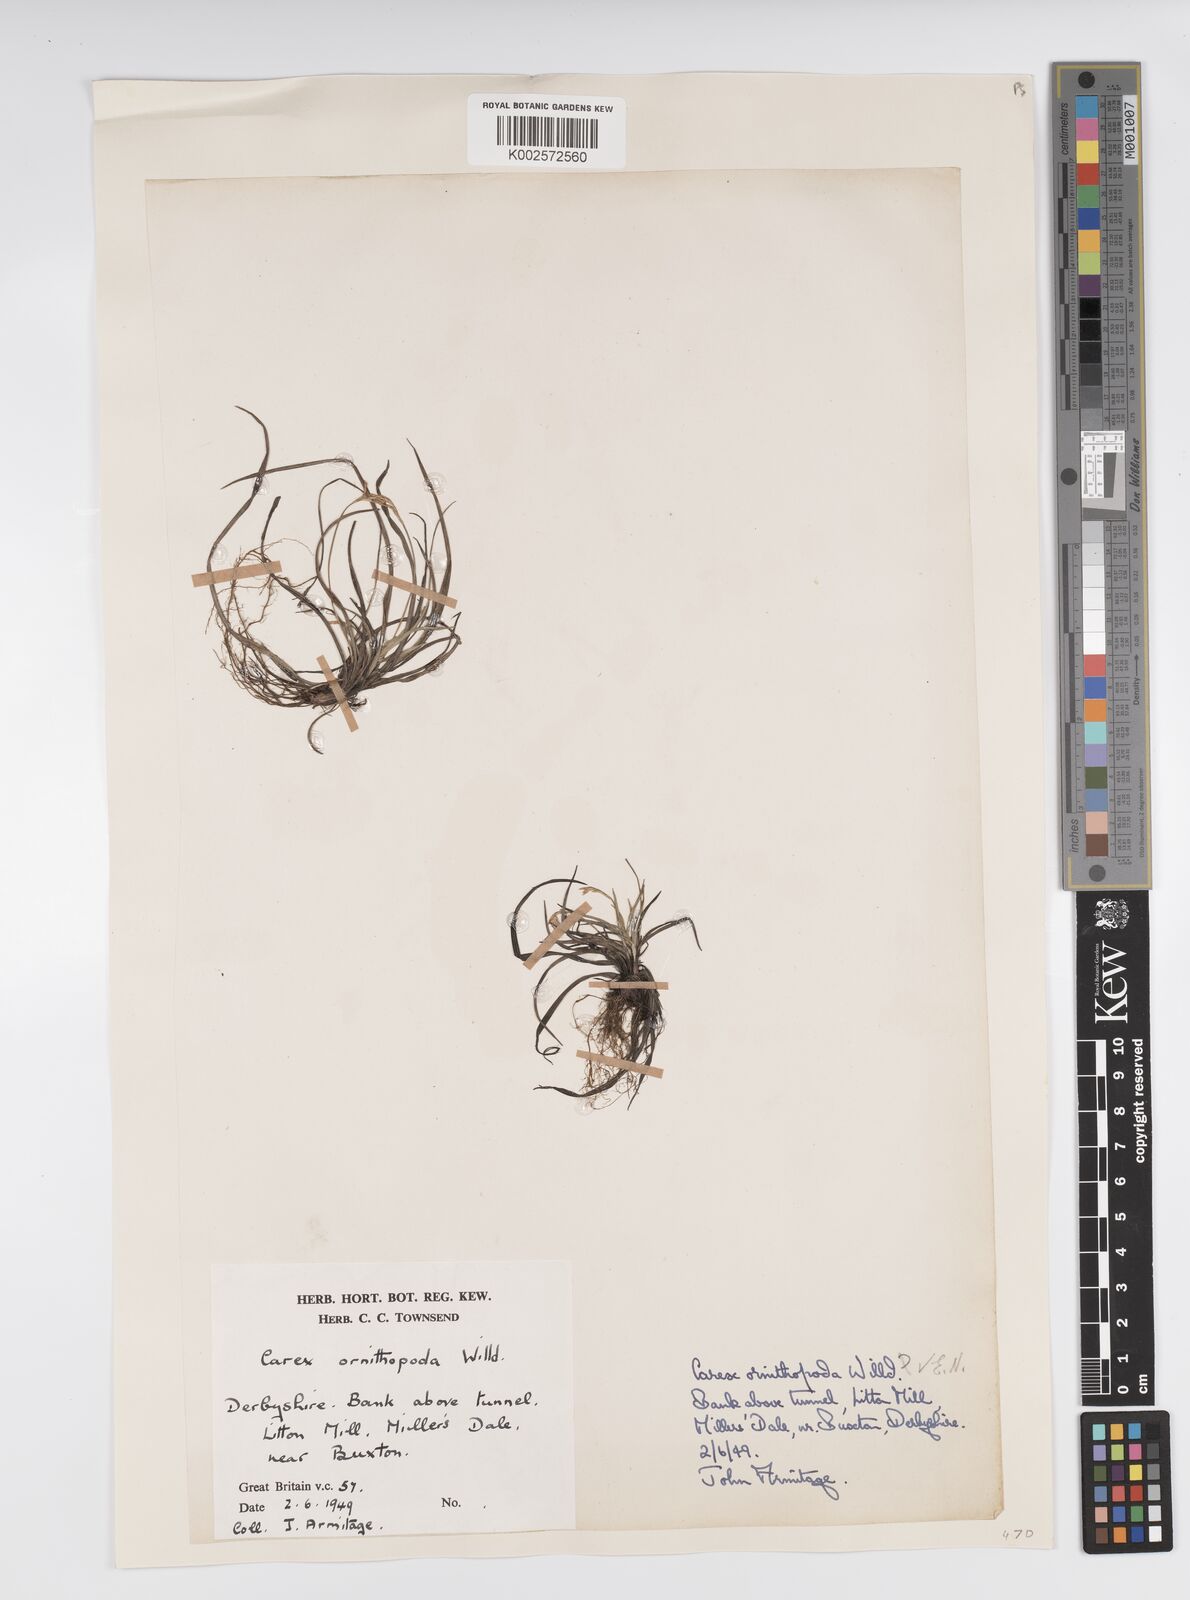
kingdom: Plantae
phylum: Tracheophyta
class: Liliopsida
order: Poales
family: Cyperaceae
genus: Carex
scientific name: Carex ornithopoda
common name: Bird's-foot sedge
